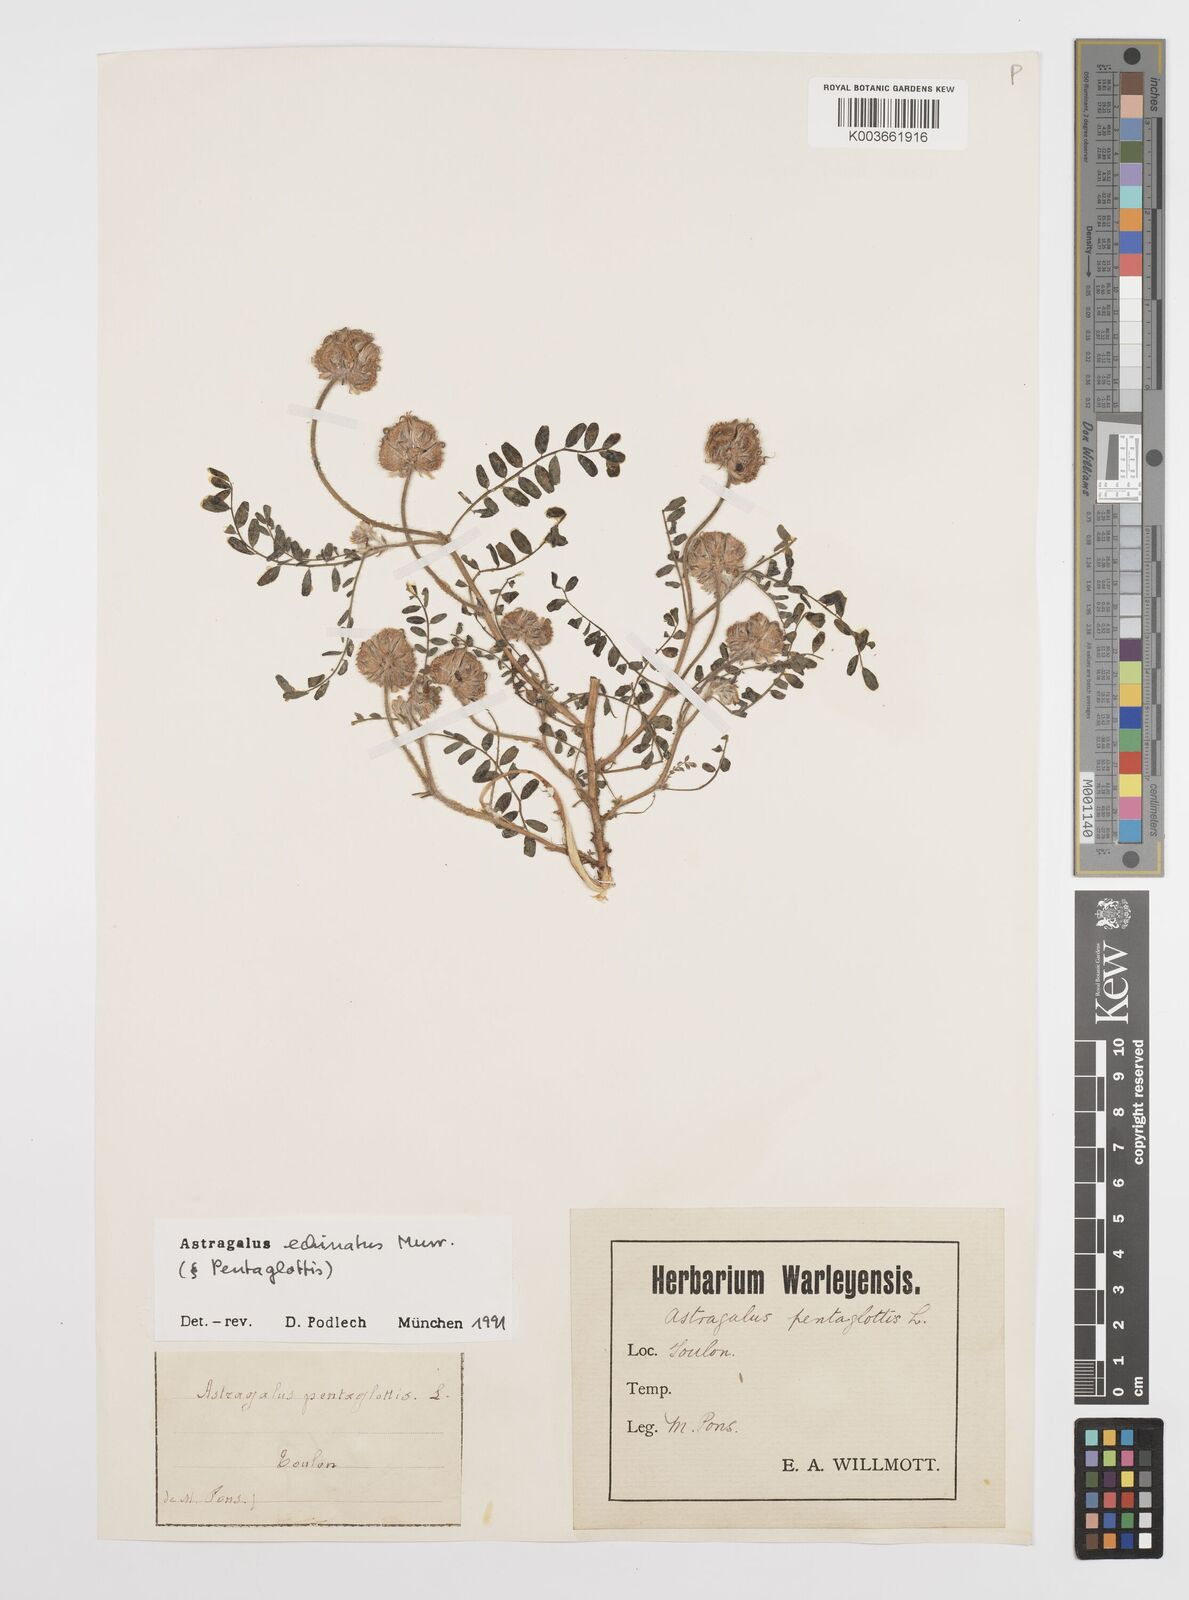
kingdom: Plantae
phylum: Tracheophyta
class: Magnoliopsida
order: Fabales
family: Fabaceae
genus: Astragalus
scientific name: Astragalus echinatus
